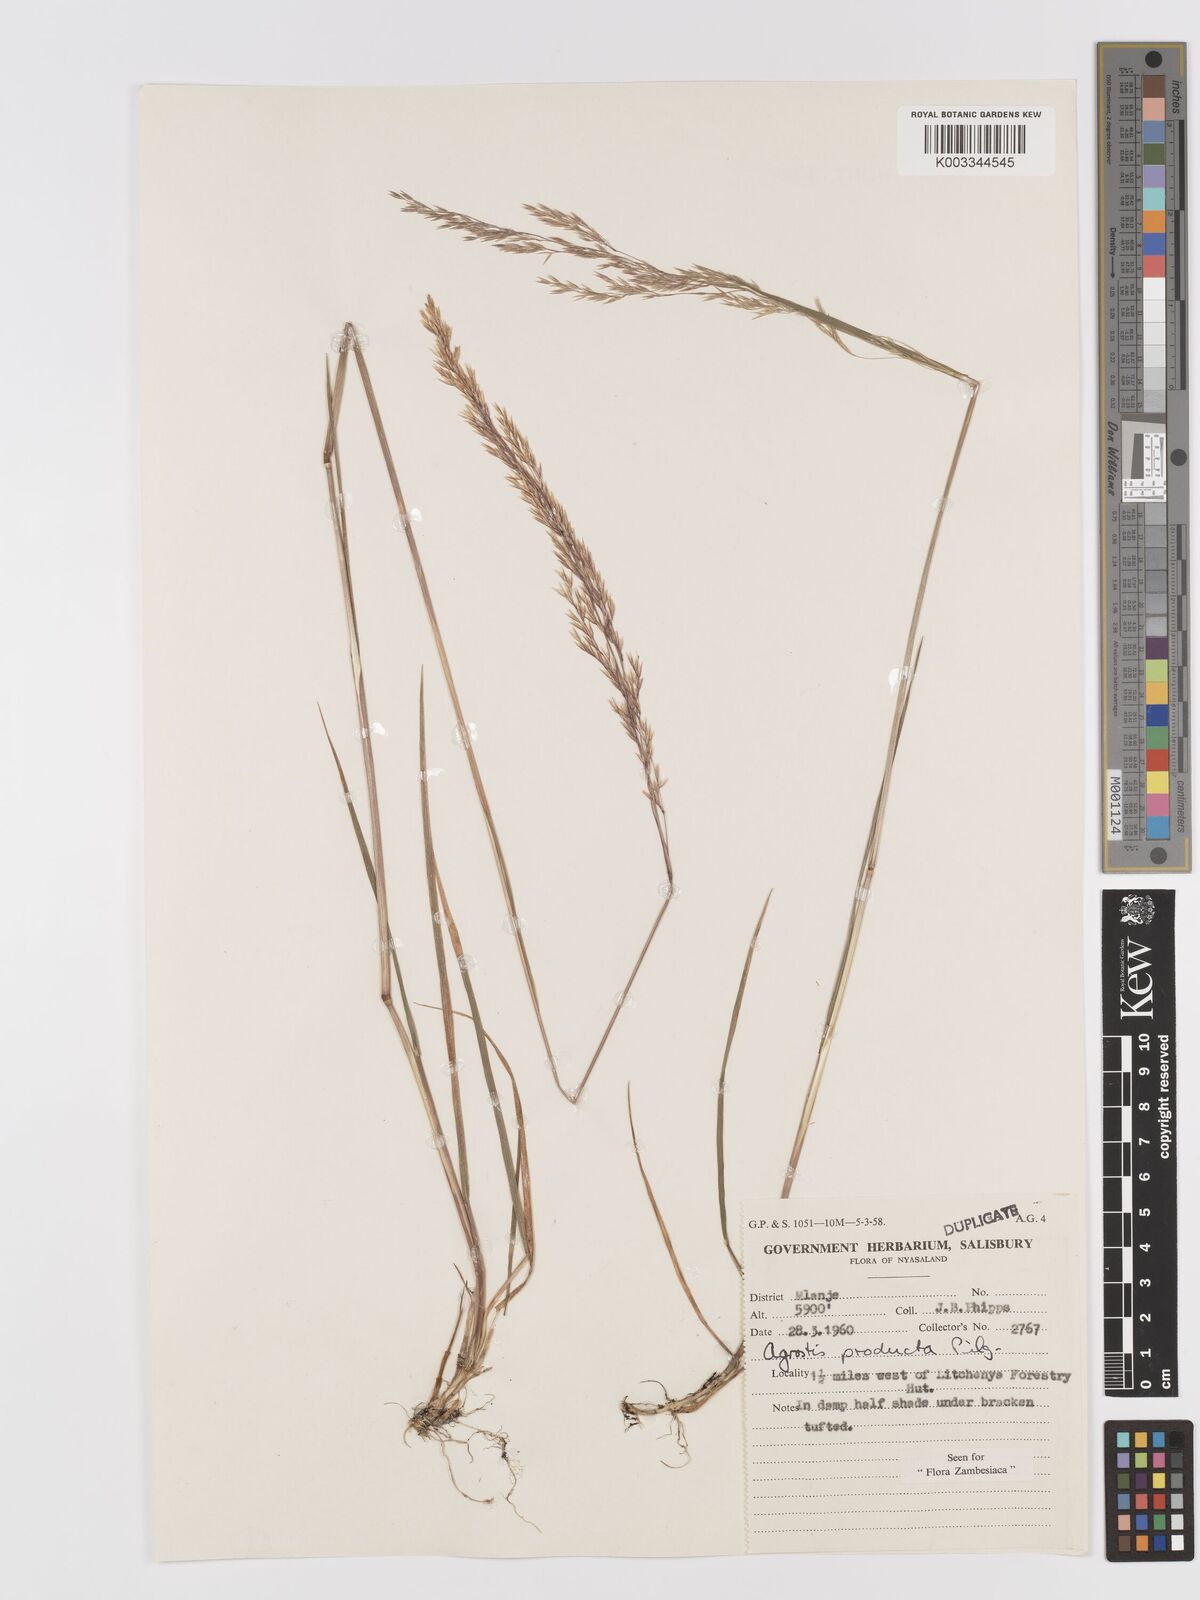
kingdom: Plantae
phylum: Tracheophyta
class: Liliopsida
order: Poales
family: Poaceae
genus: Agrostis
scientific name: Agrostis producta
